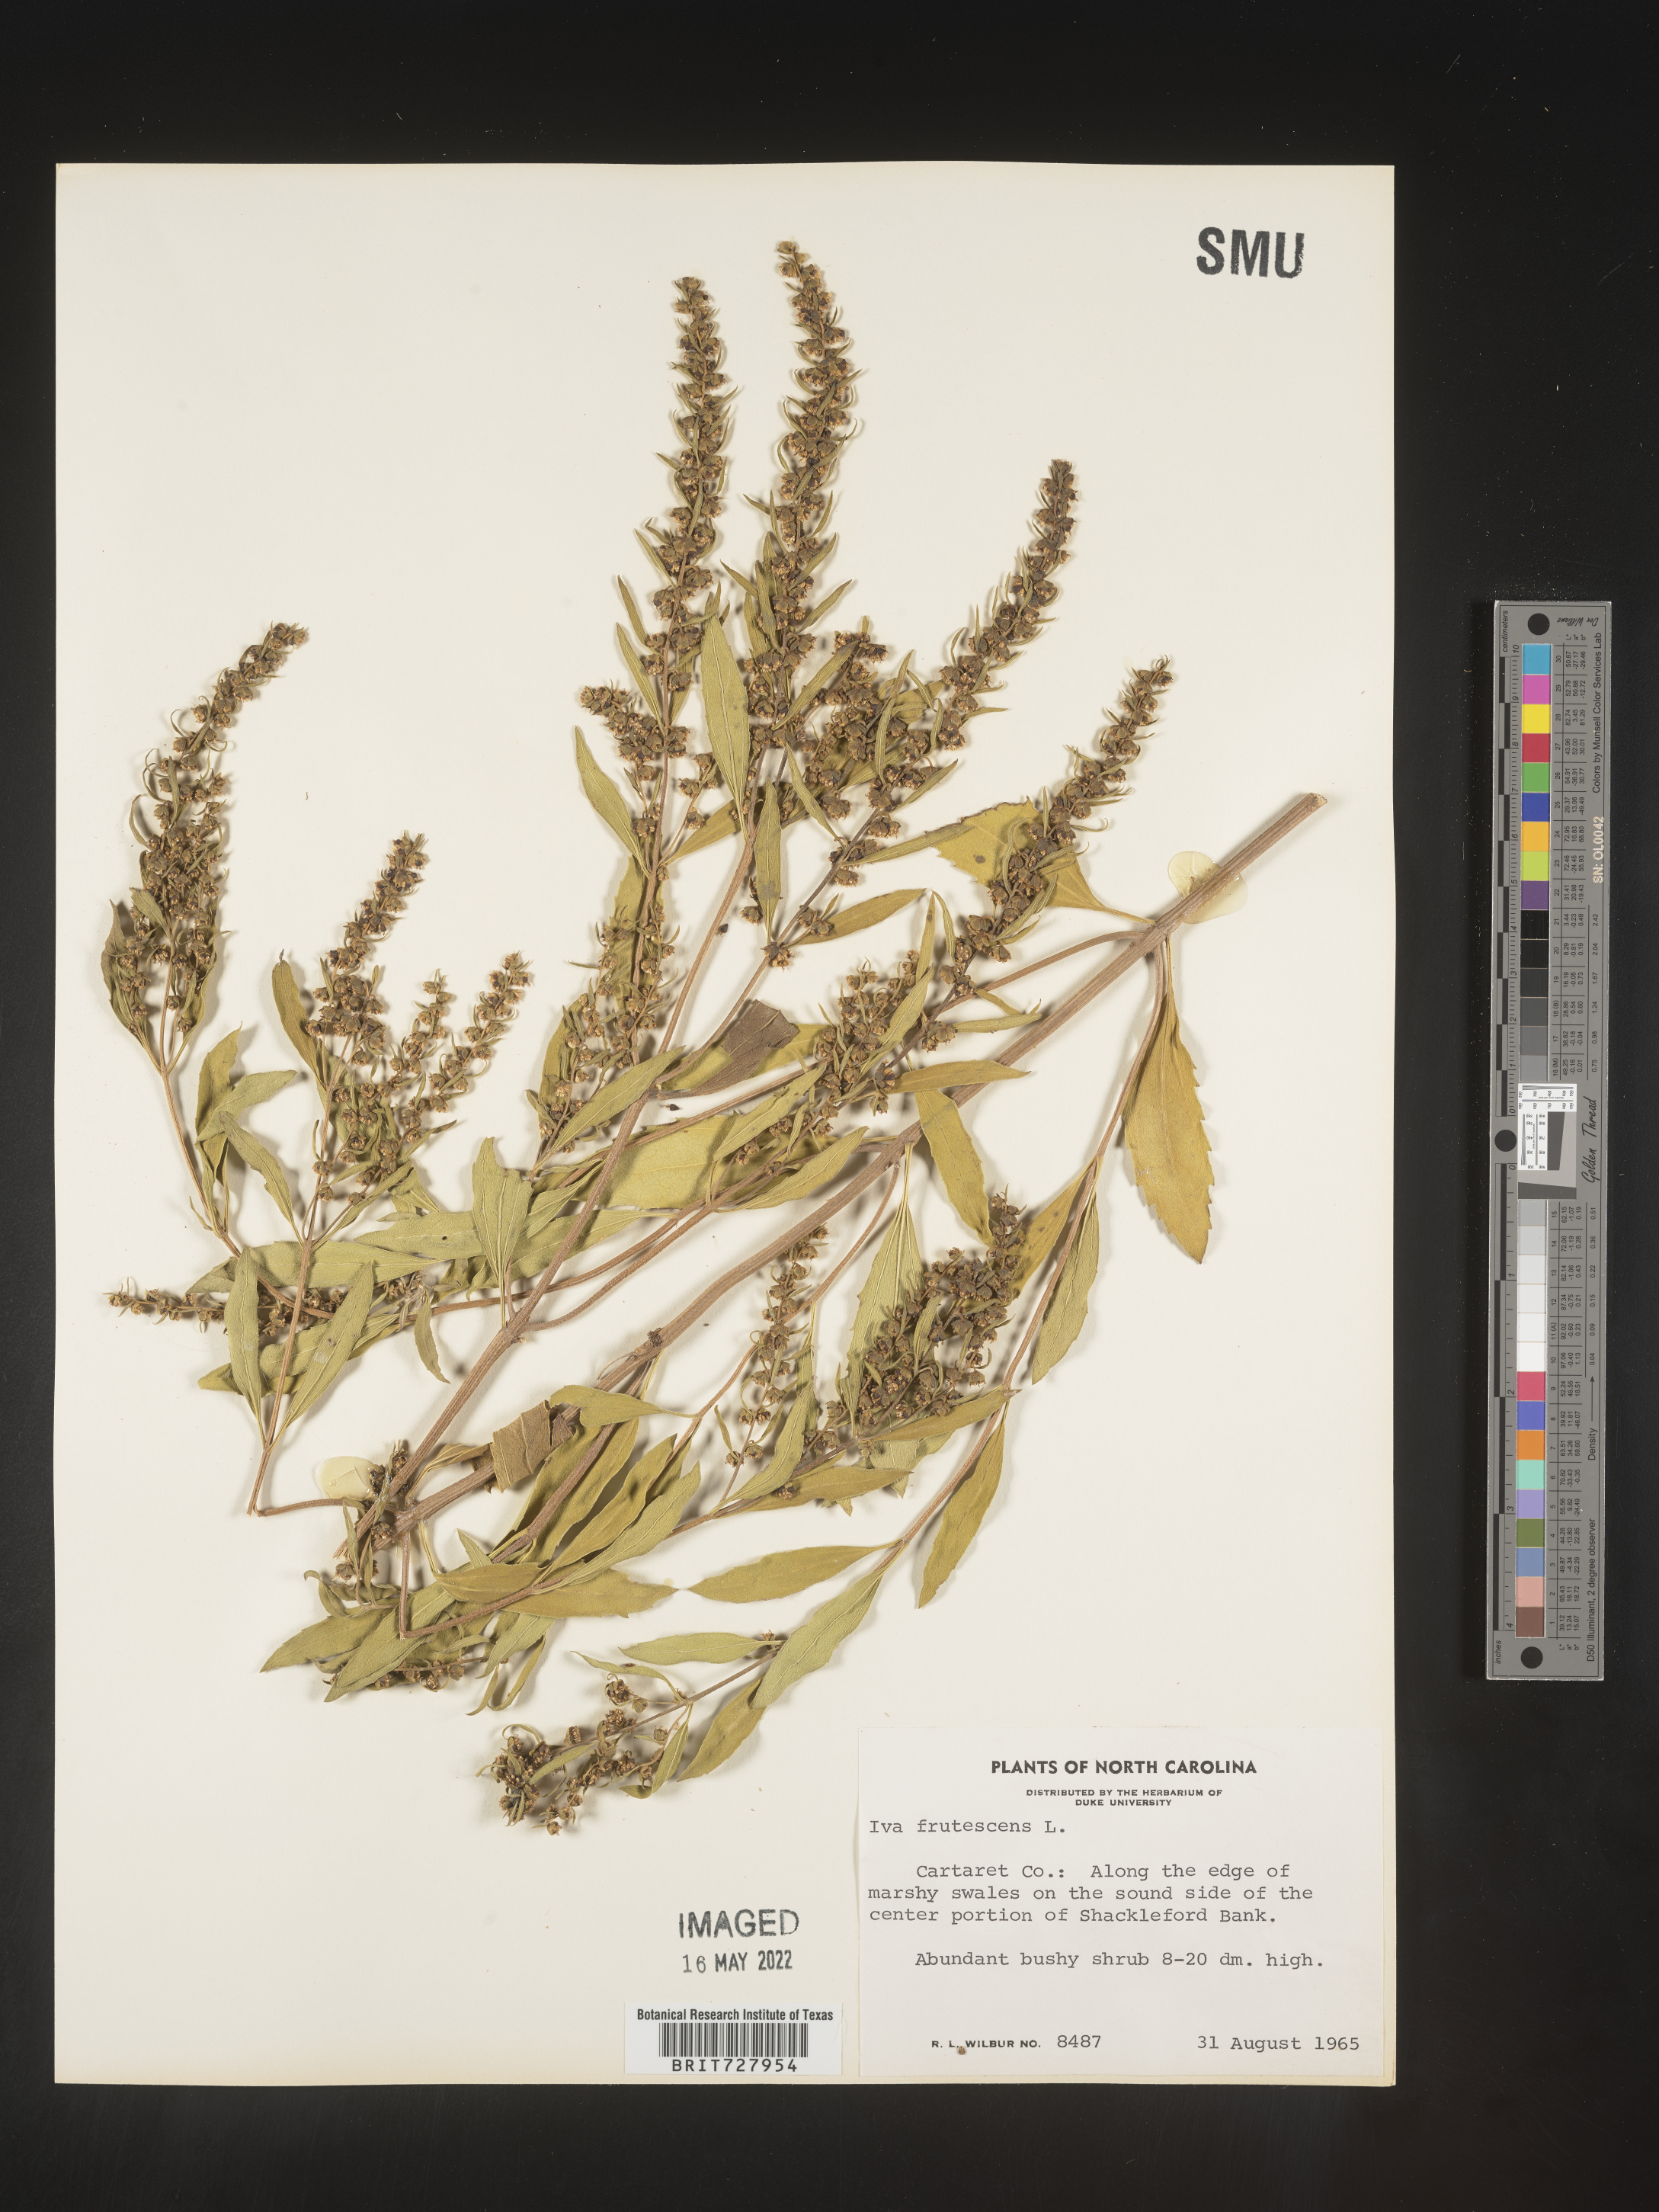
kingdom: Plantae
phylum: Tracheophyta
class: Magnoliopsida
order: Asterales
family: Asteraceae
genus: Iva
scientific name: Iva frutescens
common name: Big-leaved marsh-elder
